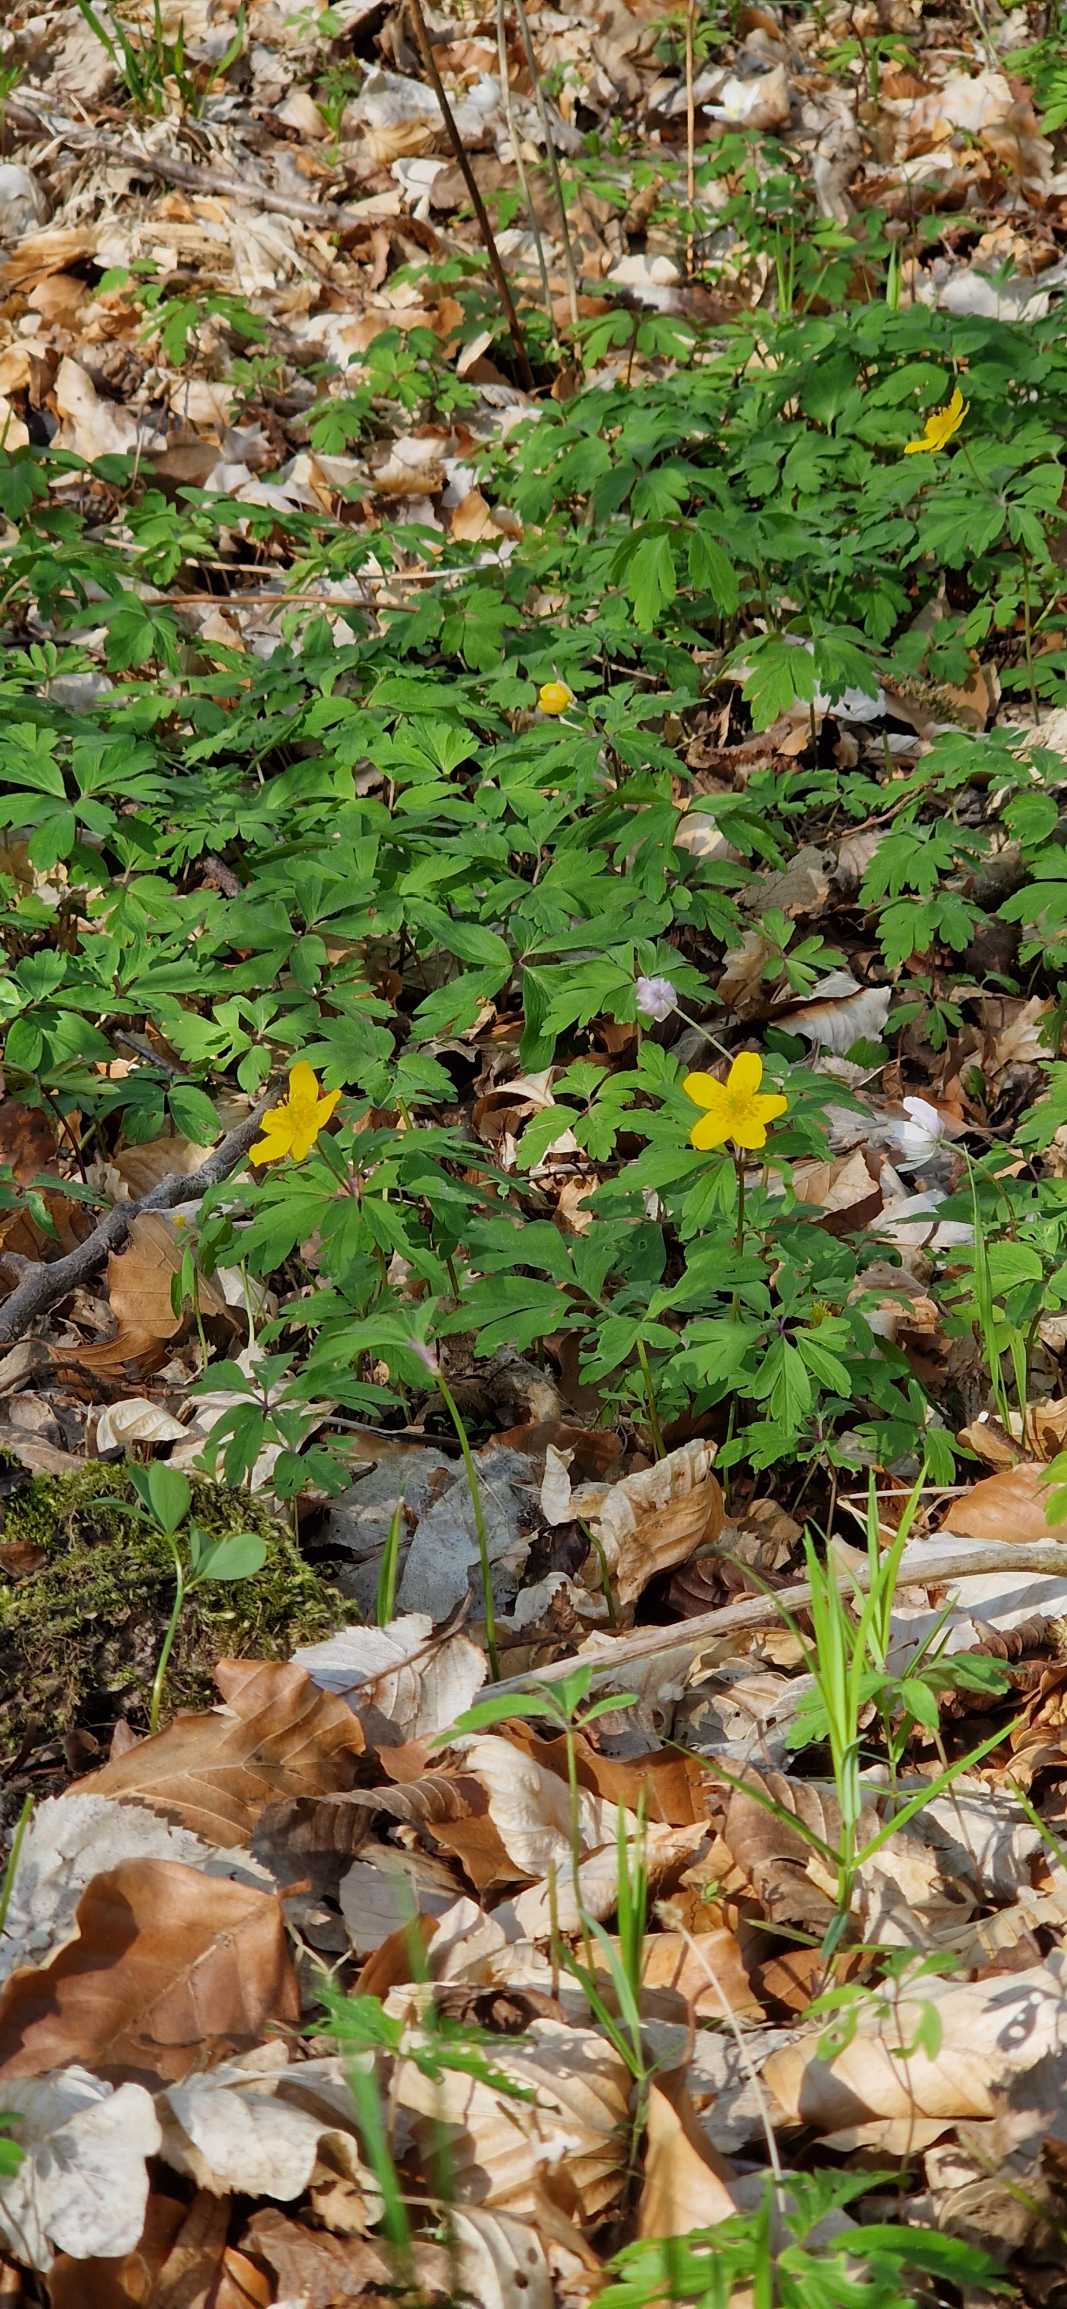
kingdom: Plantae
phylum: Tracheophyta
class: Magnoliopsida
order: Ranunculales
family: Ranunculaceae
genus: Anemone
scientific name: Anemone ranunculoides
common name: Gul anemone
